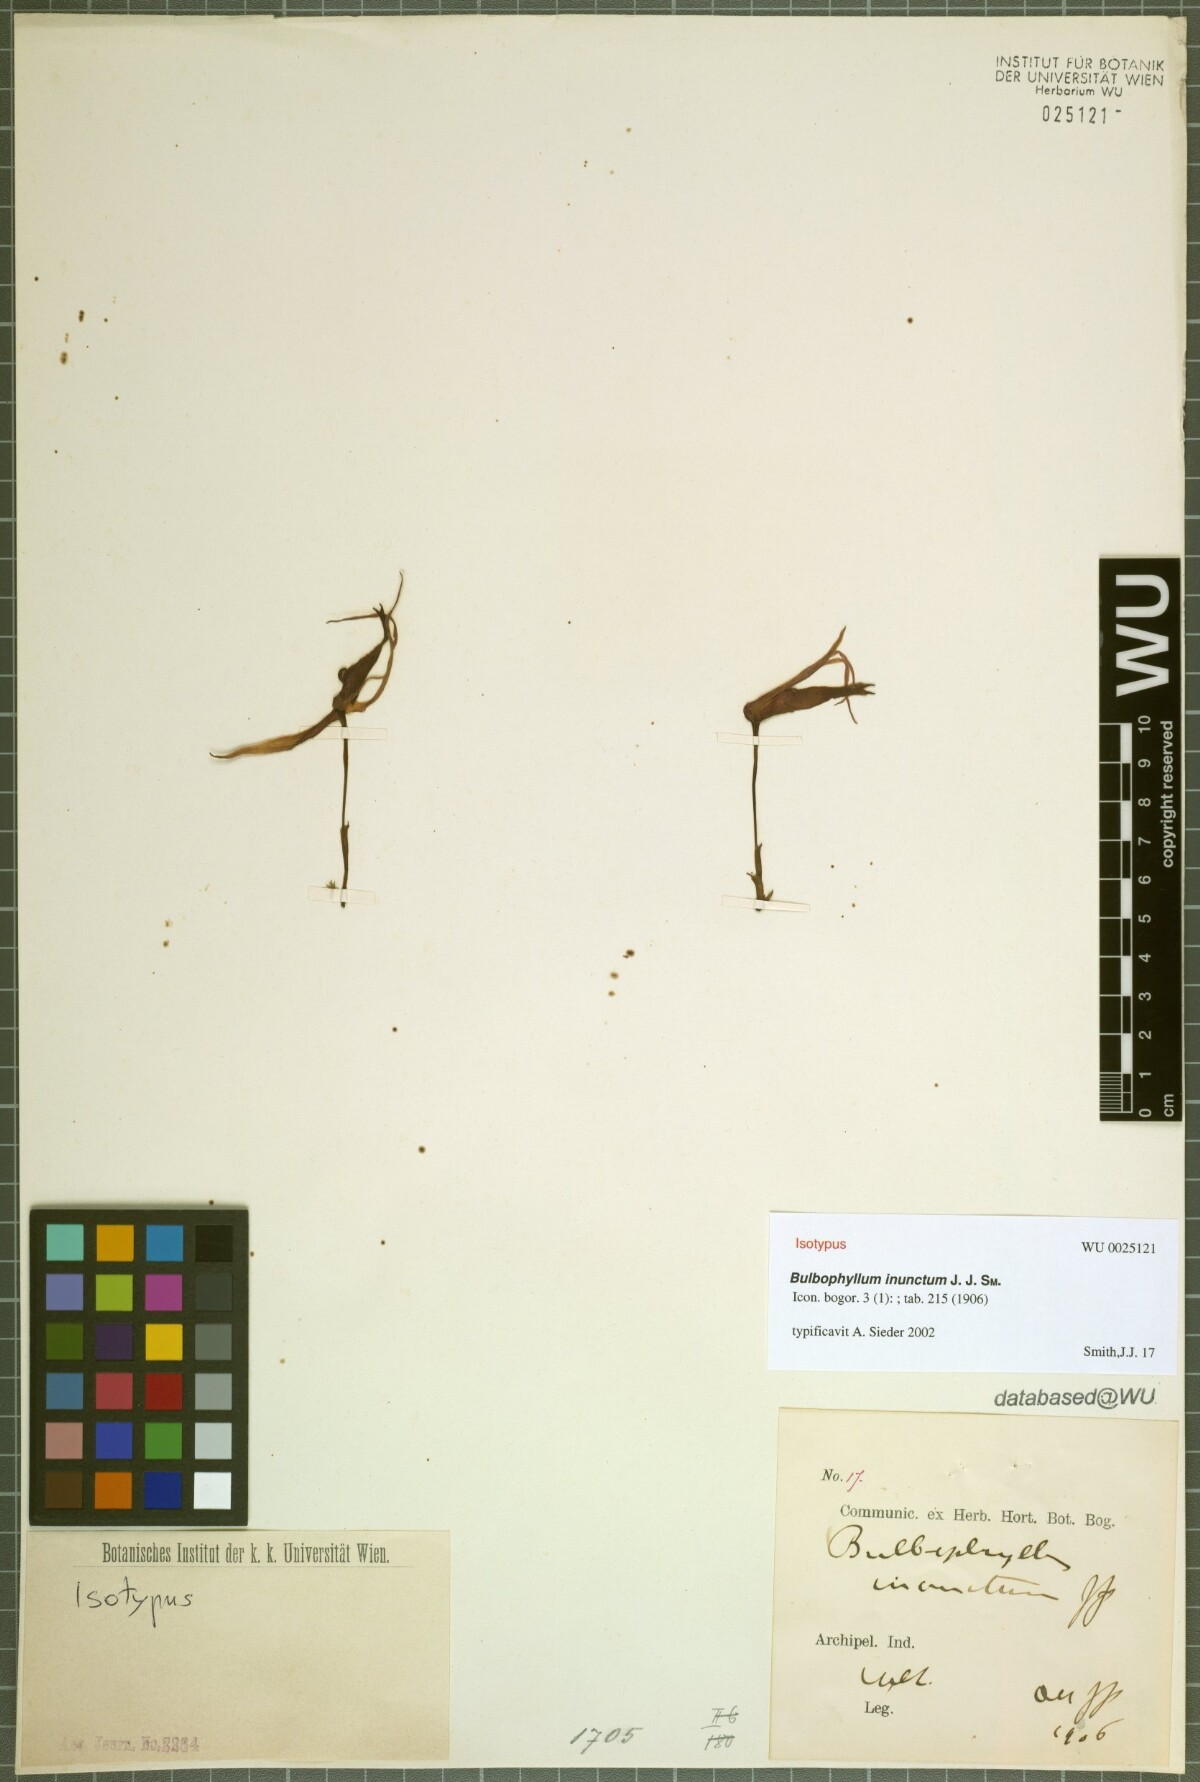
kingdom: Plantae
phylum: Tracheophyta
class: Liliopsida
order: Asparagales
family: Orchidaceae
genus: Bulbophyllum
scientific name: Bulbophyllum membranifolium
